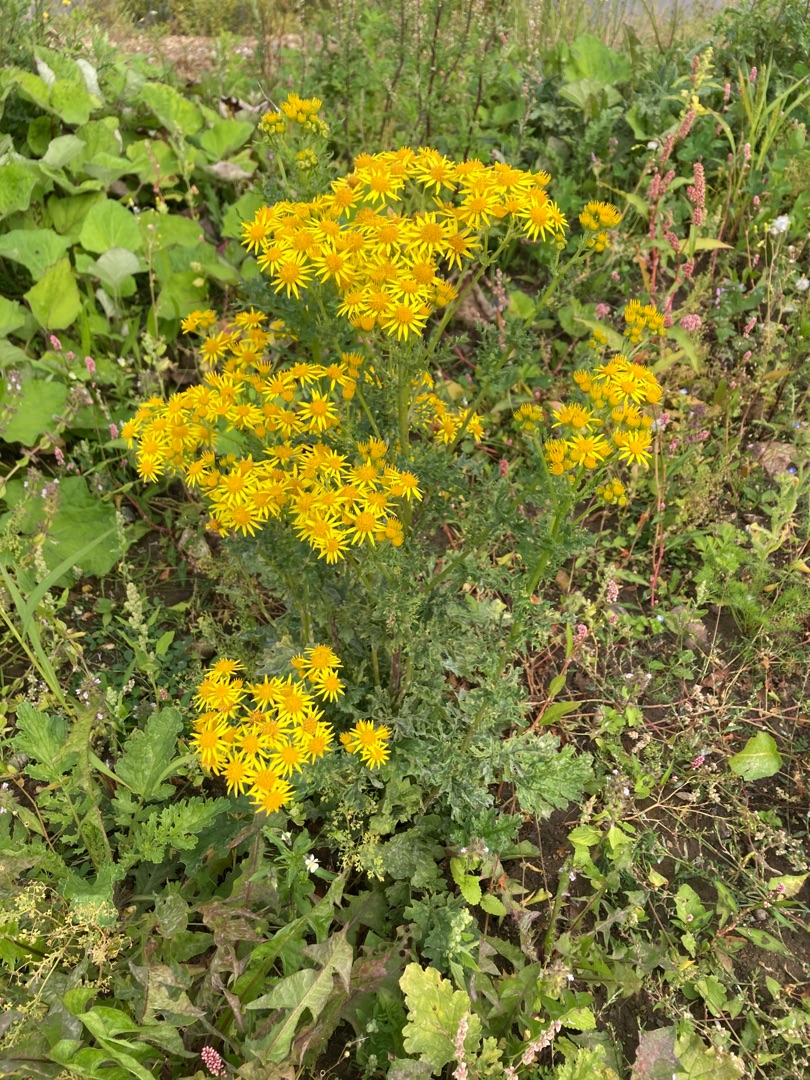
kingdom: Plantae
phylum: Tracheophyta
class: Magnoliopsida
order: Asterales
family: Asteraceae
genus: Jacobaea
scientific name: Jacobaea vulgaris
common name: Eng-brandbæger
